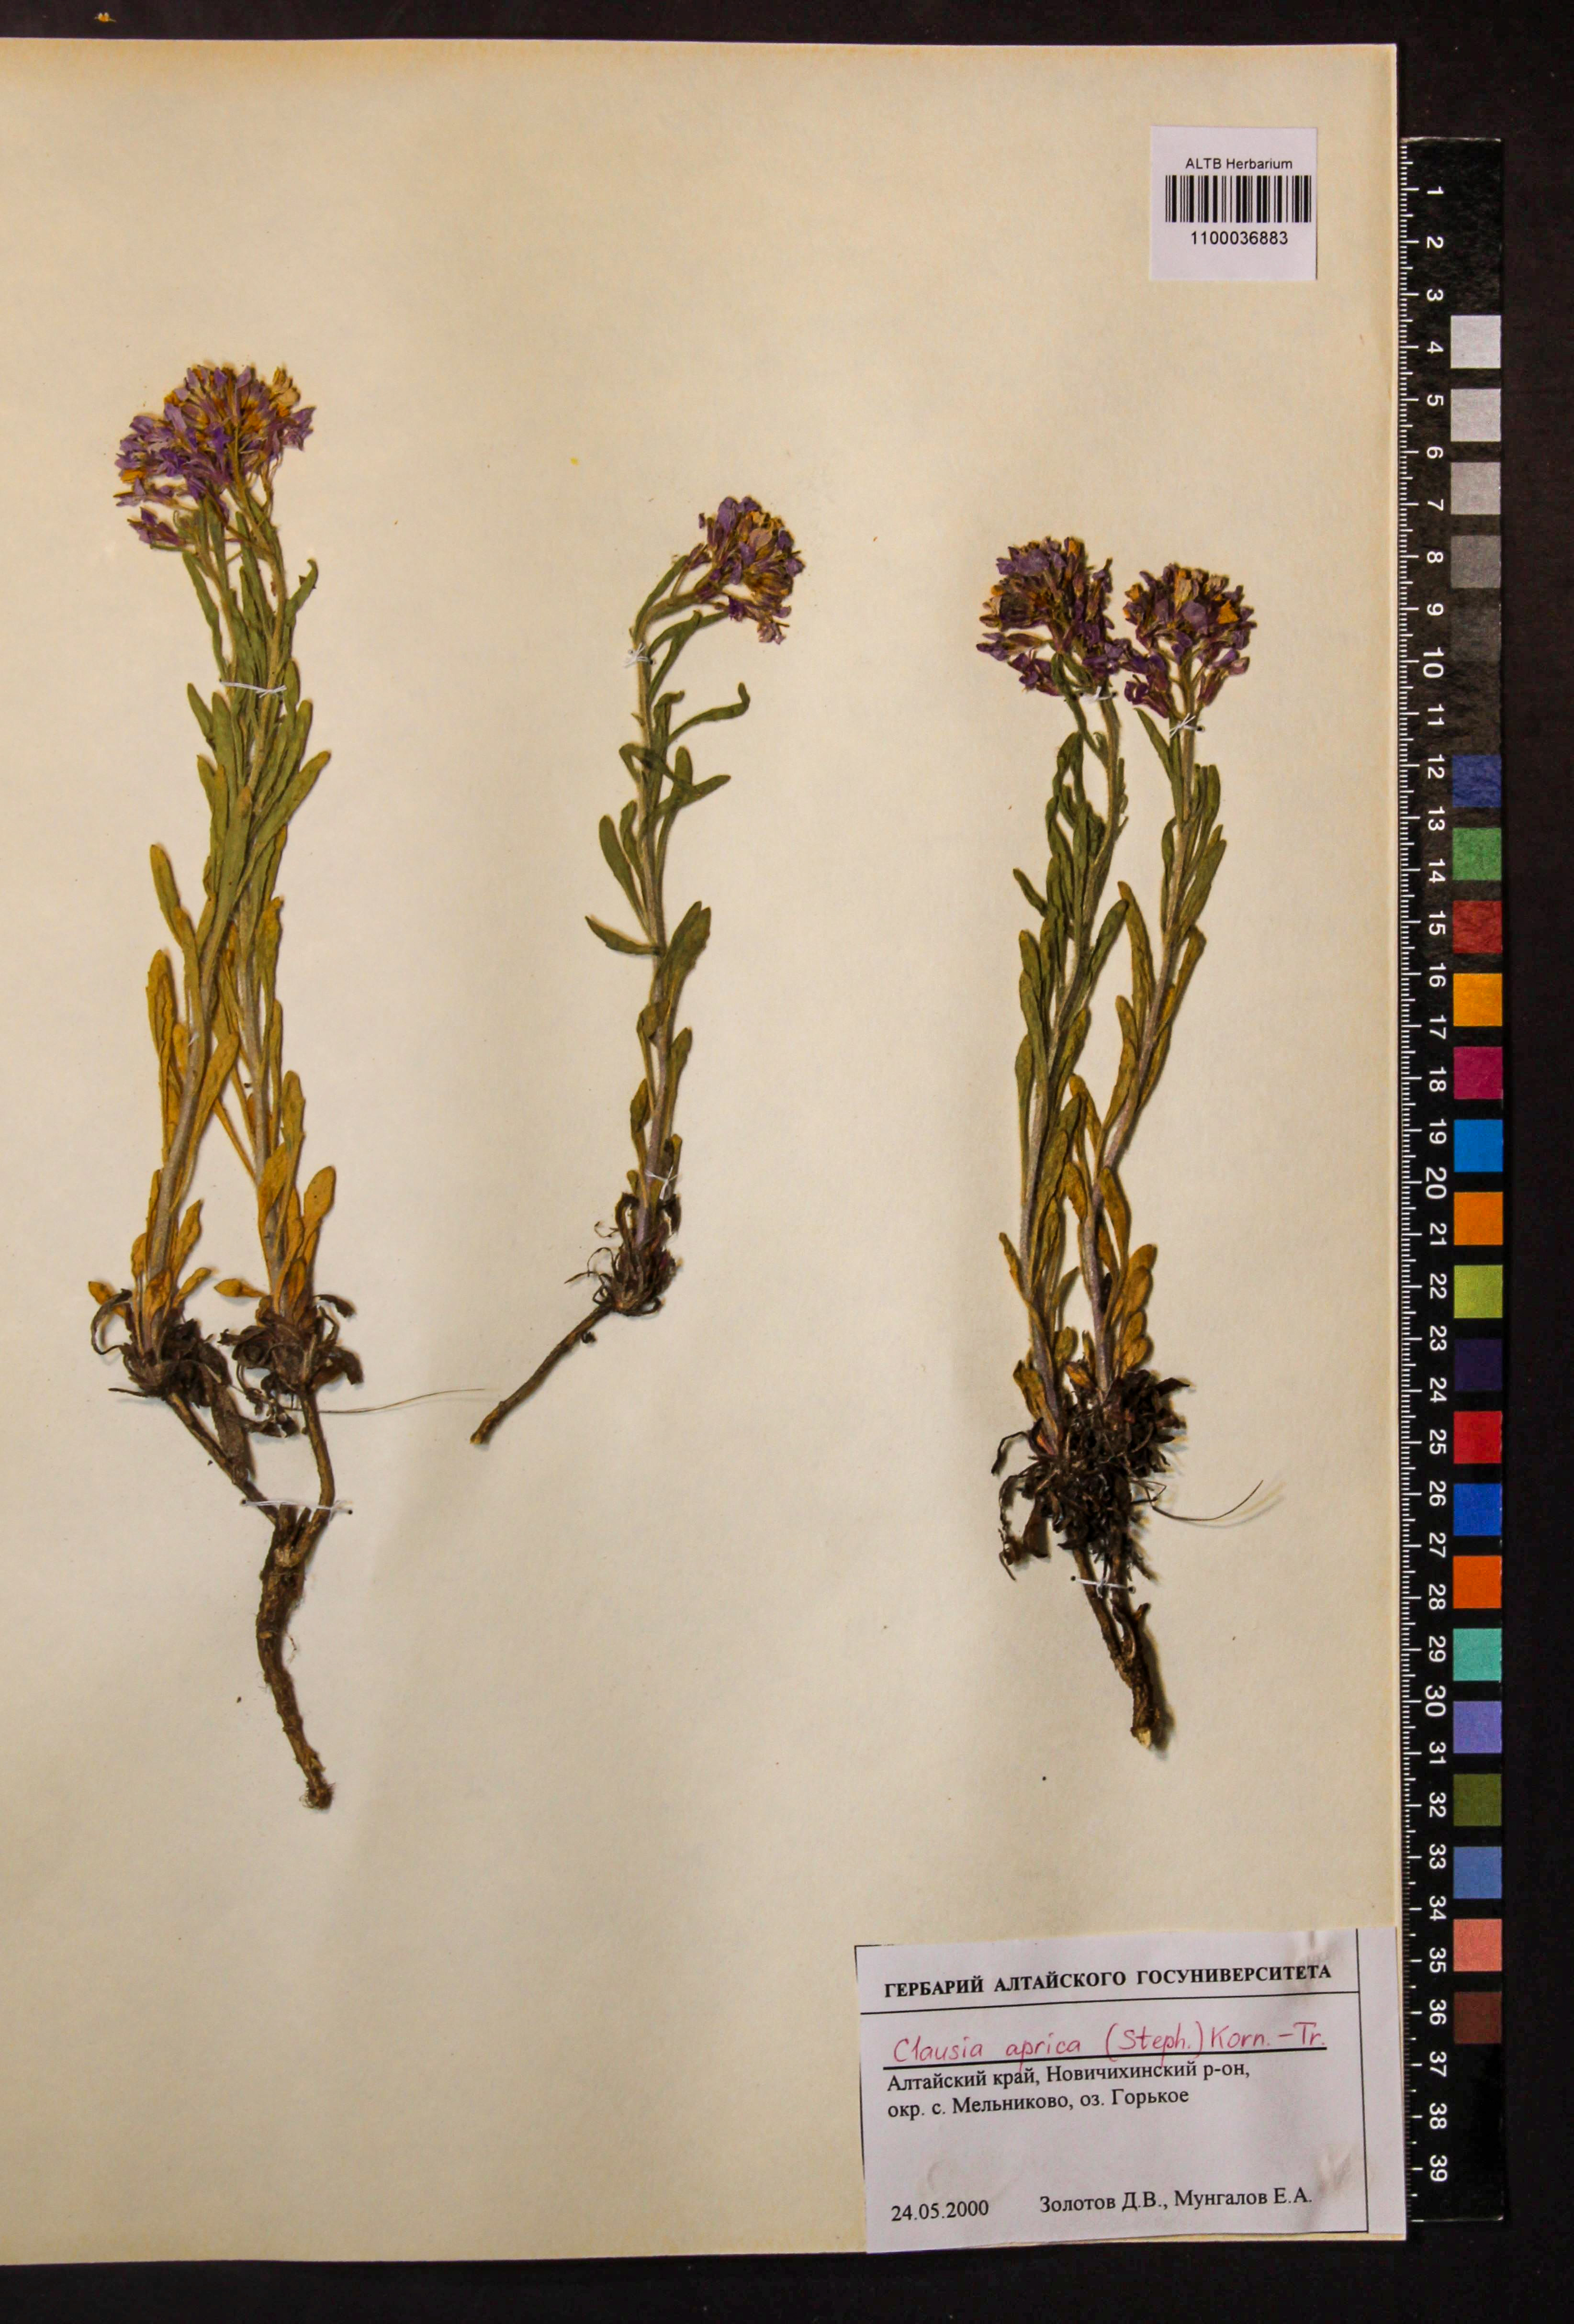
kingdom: Plantae
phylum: Tracheophyta
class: Magnoliopsida
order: Brassicales
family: Brassicaceae
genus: Clausia
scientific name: Clausia aprica
